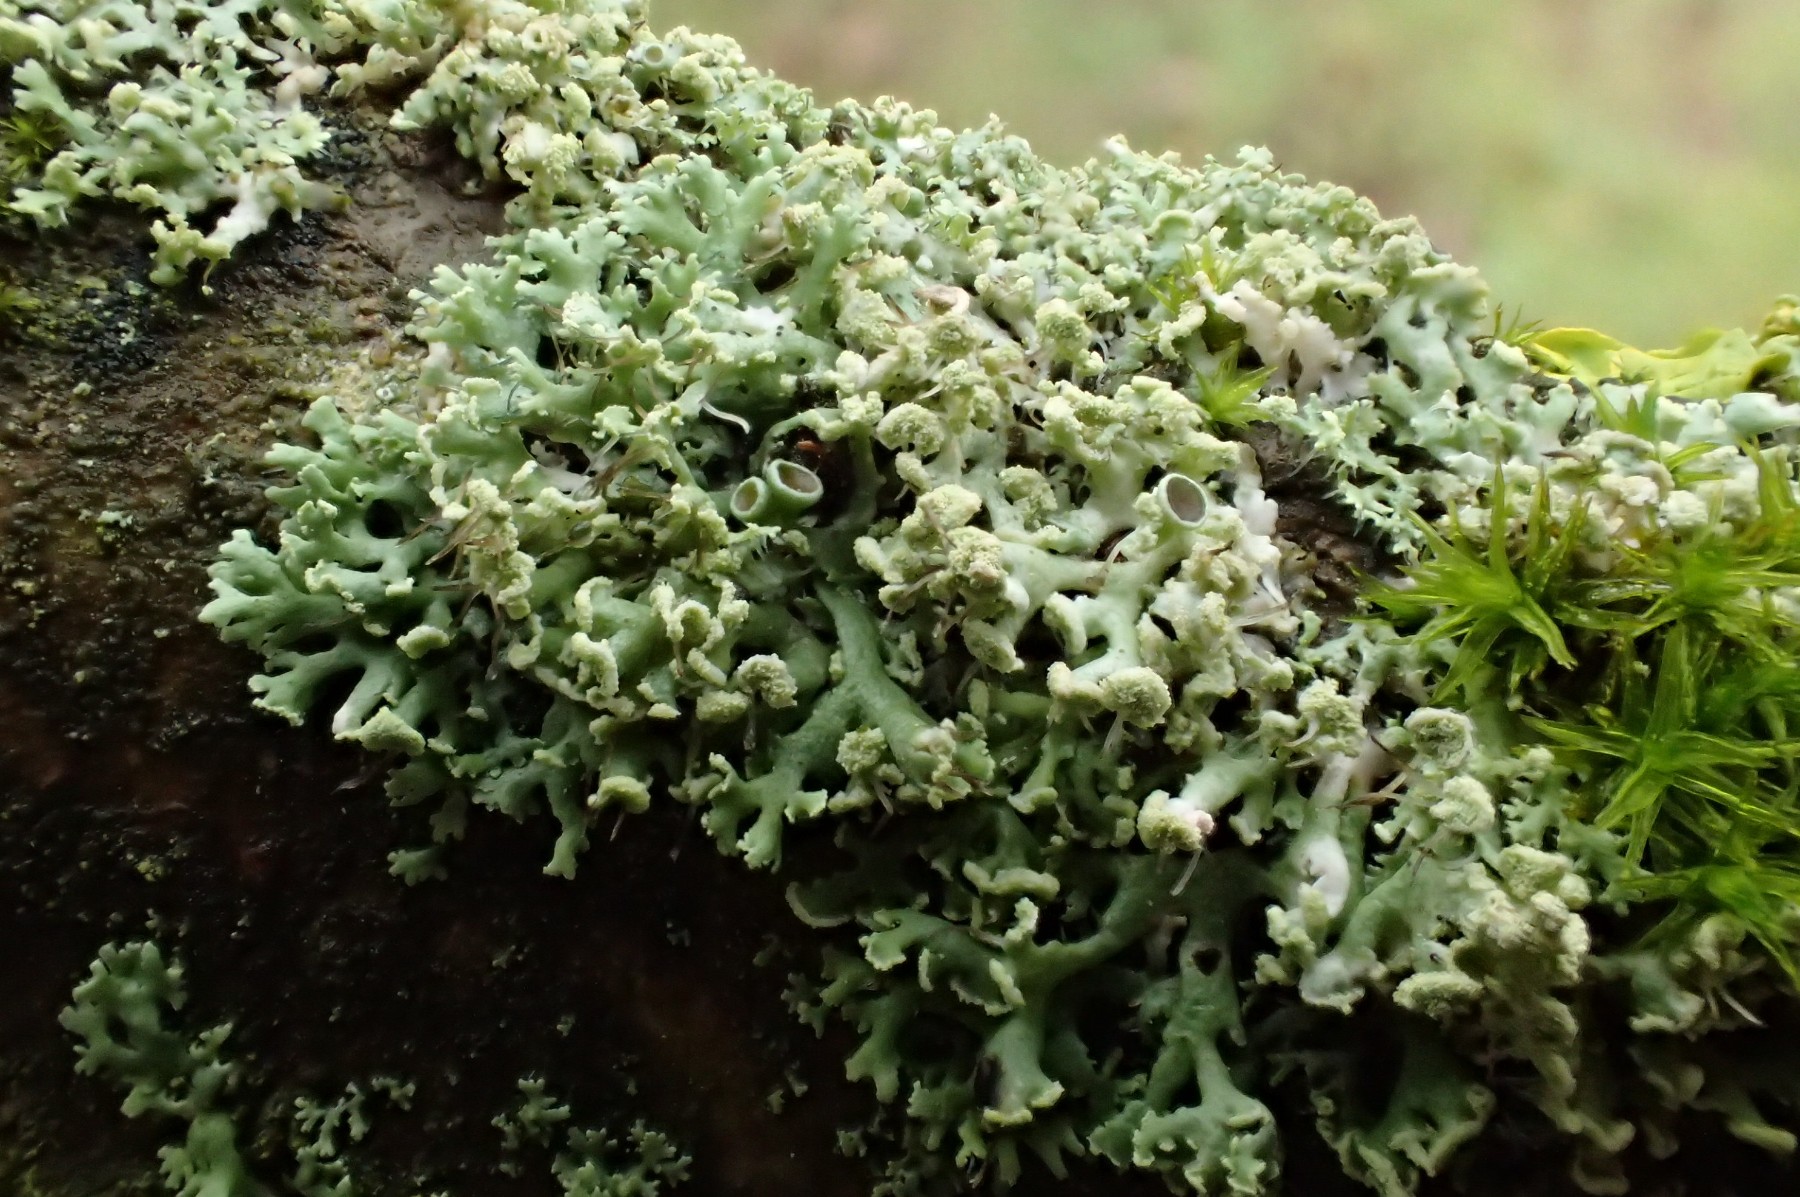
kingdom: Fungi
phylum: Ascomycota
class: Lecanoromycetes
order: Caliciales
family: Physciaceae
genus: Physcia
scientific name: Physcia tenella
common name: spæd rosetlav
